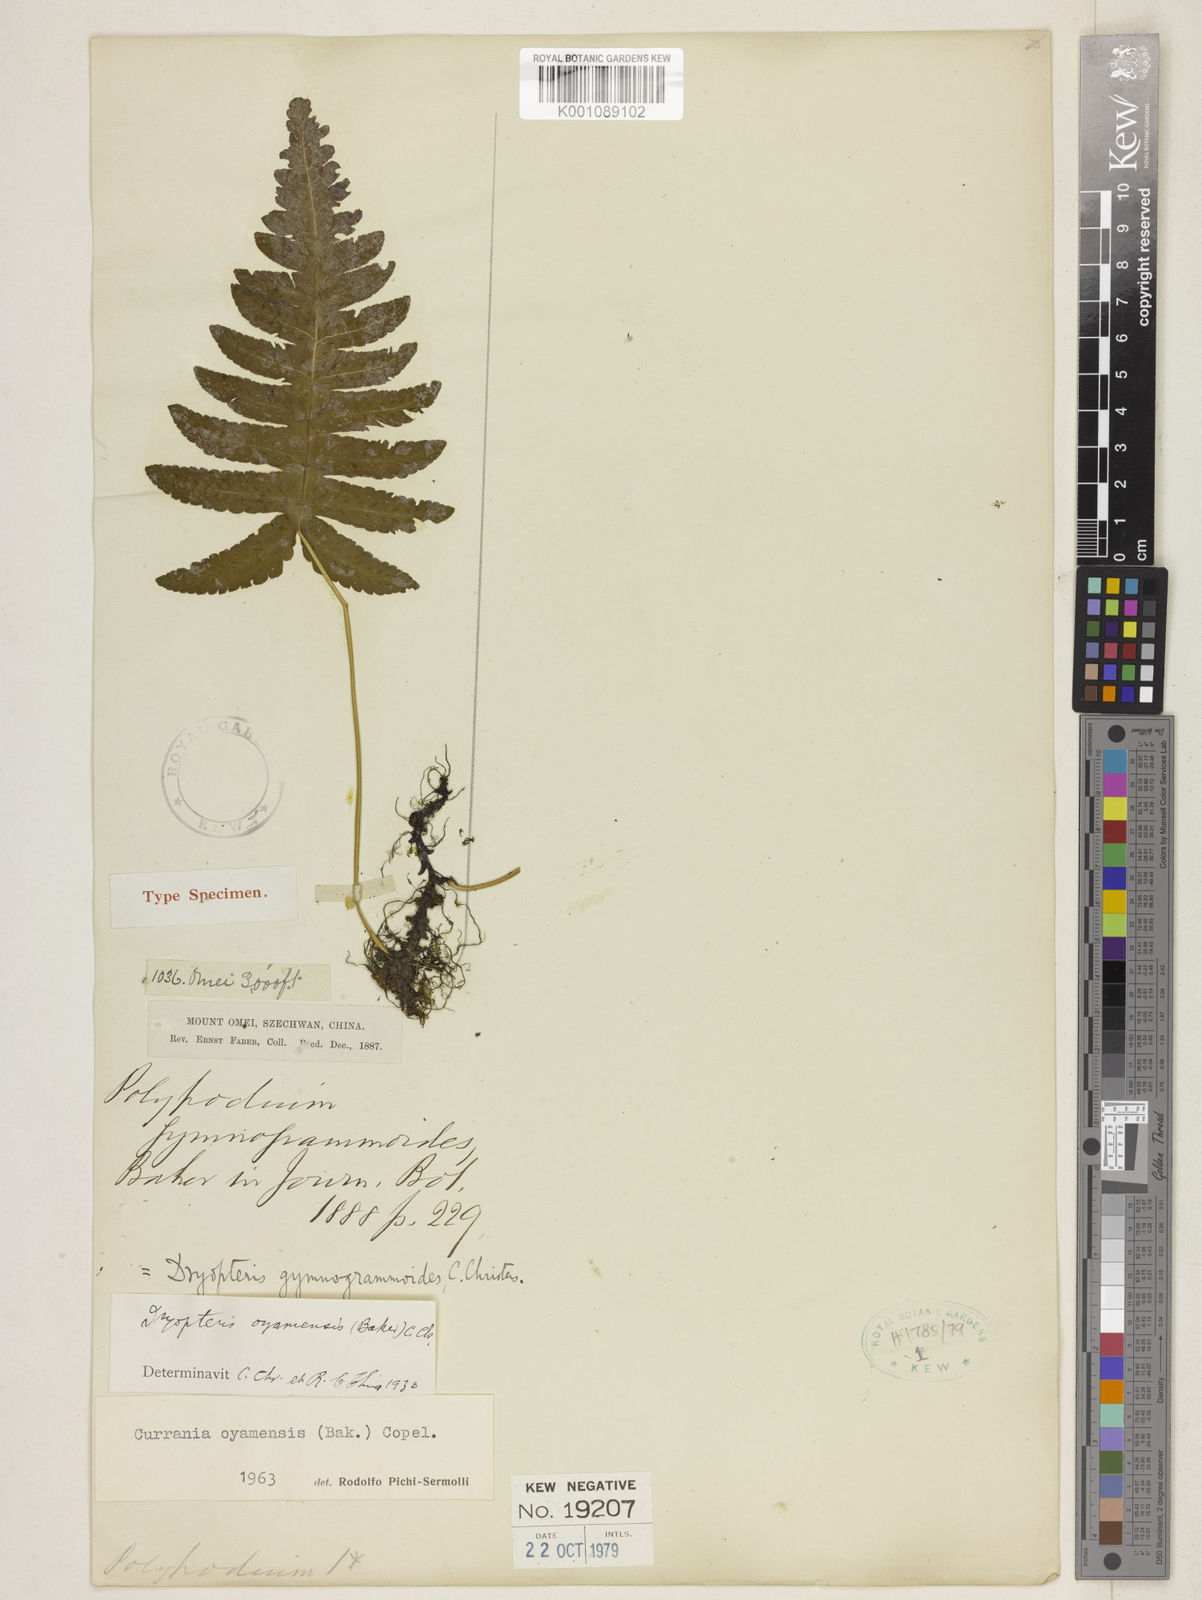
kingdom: Plantae
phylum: Tracheophyta
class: Polypodiopsida
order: Polypodiales
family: Cystopteridaceae
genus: Gymnocarpium
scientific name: Gymnocarpium oyamense
